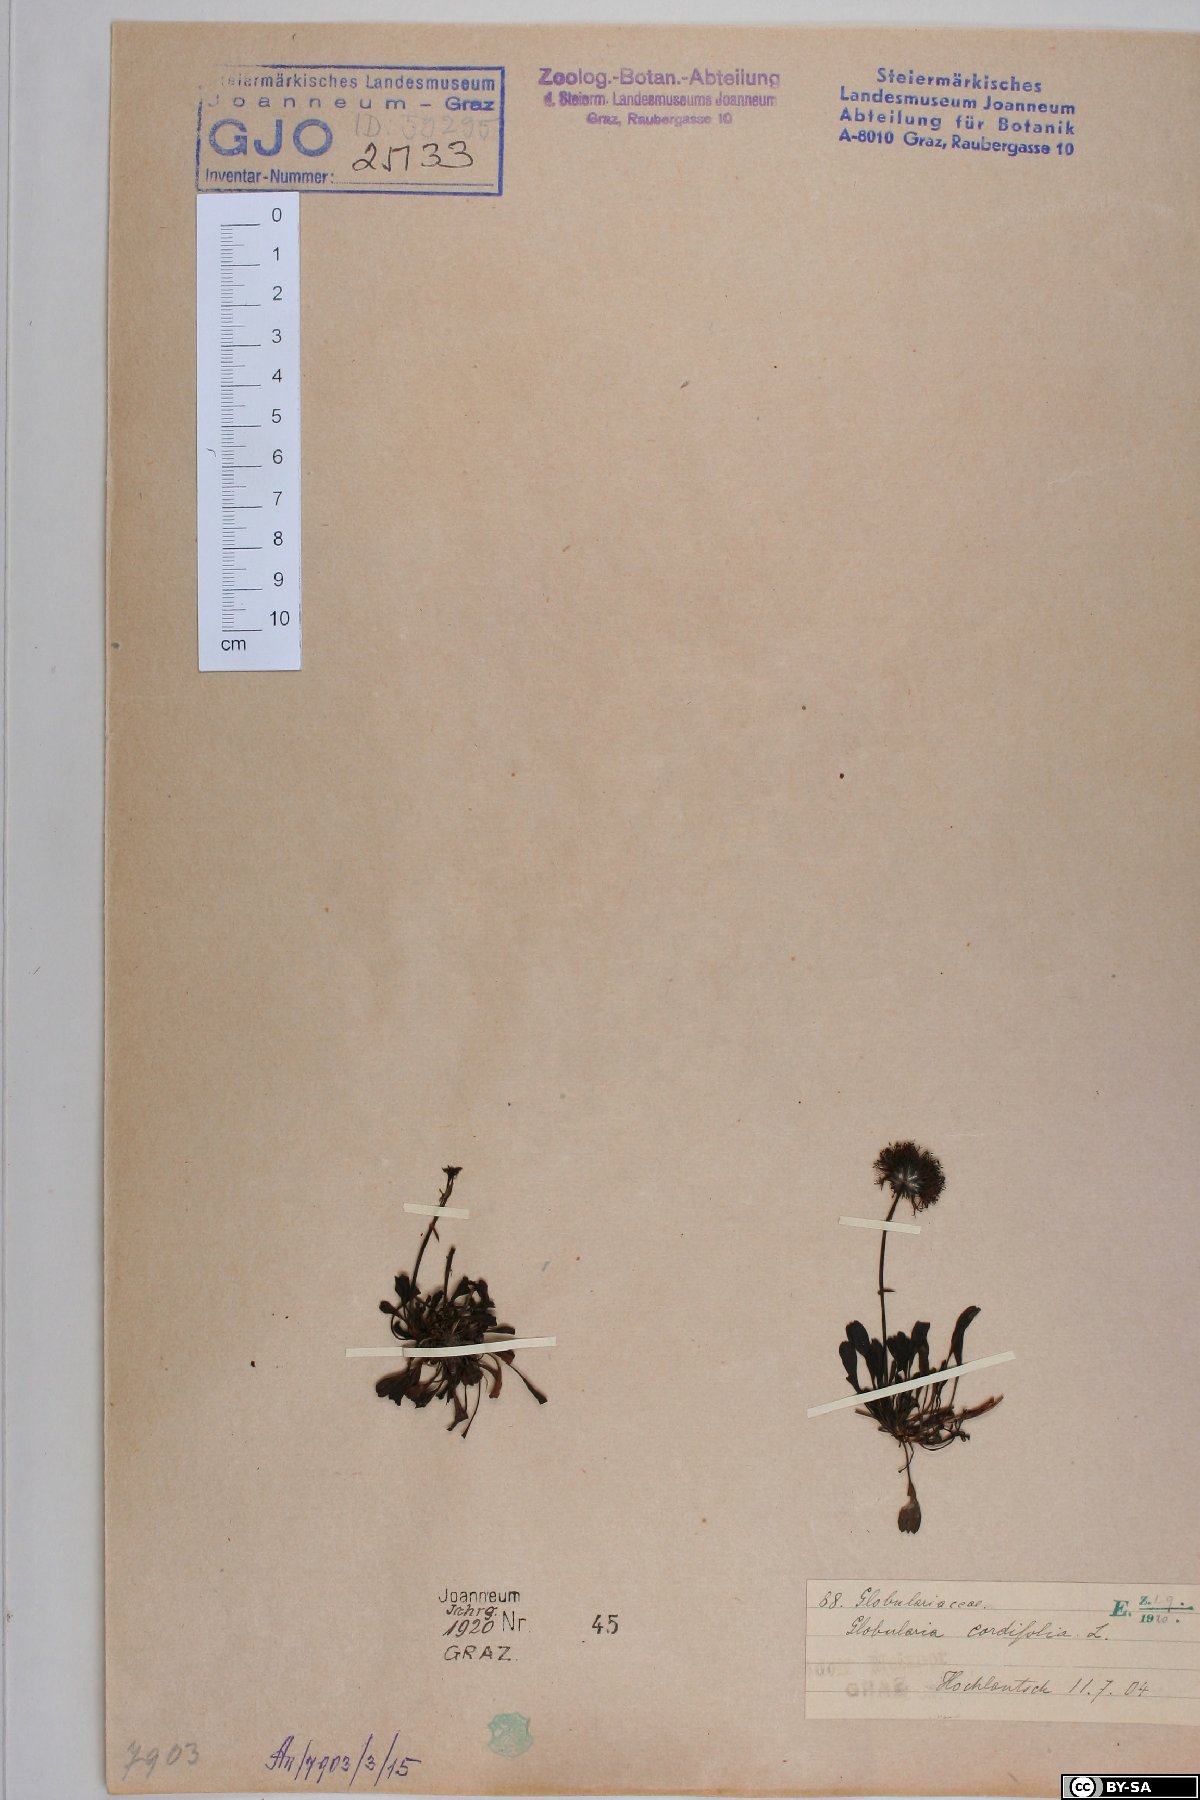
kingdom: Plantae
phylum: Tracheophyta
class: Magnoliopsida
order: Lamiales
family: Plantaginaceae
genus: Globularia
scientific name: Globularia cordifolia
